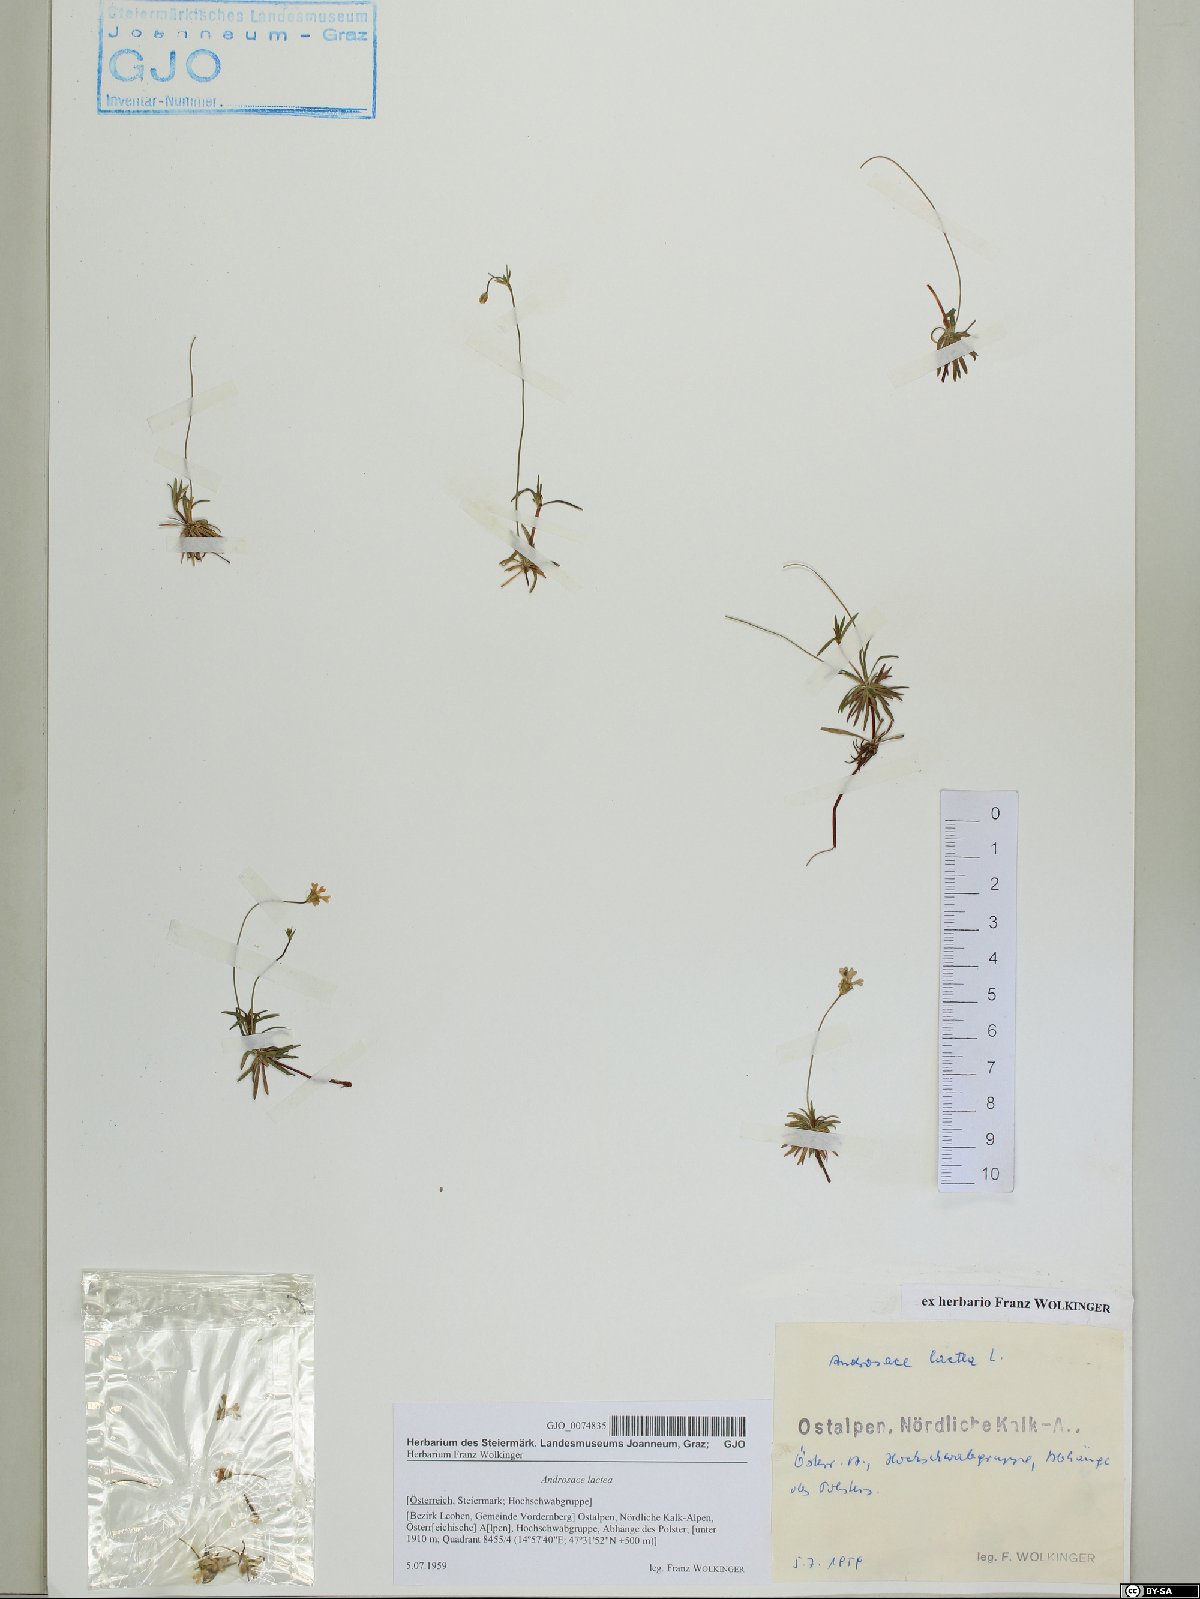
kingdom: Plantae
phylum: Tracheophyta
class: Magnoliopsida
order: Ericales
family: Primulaceae
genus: Androsace
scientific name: Androsace lactea
